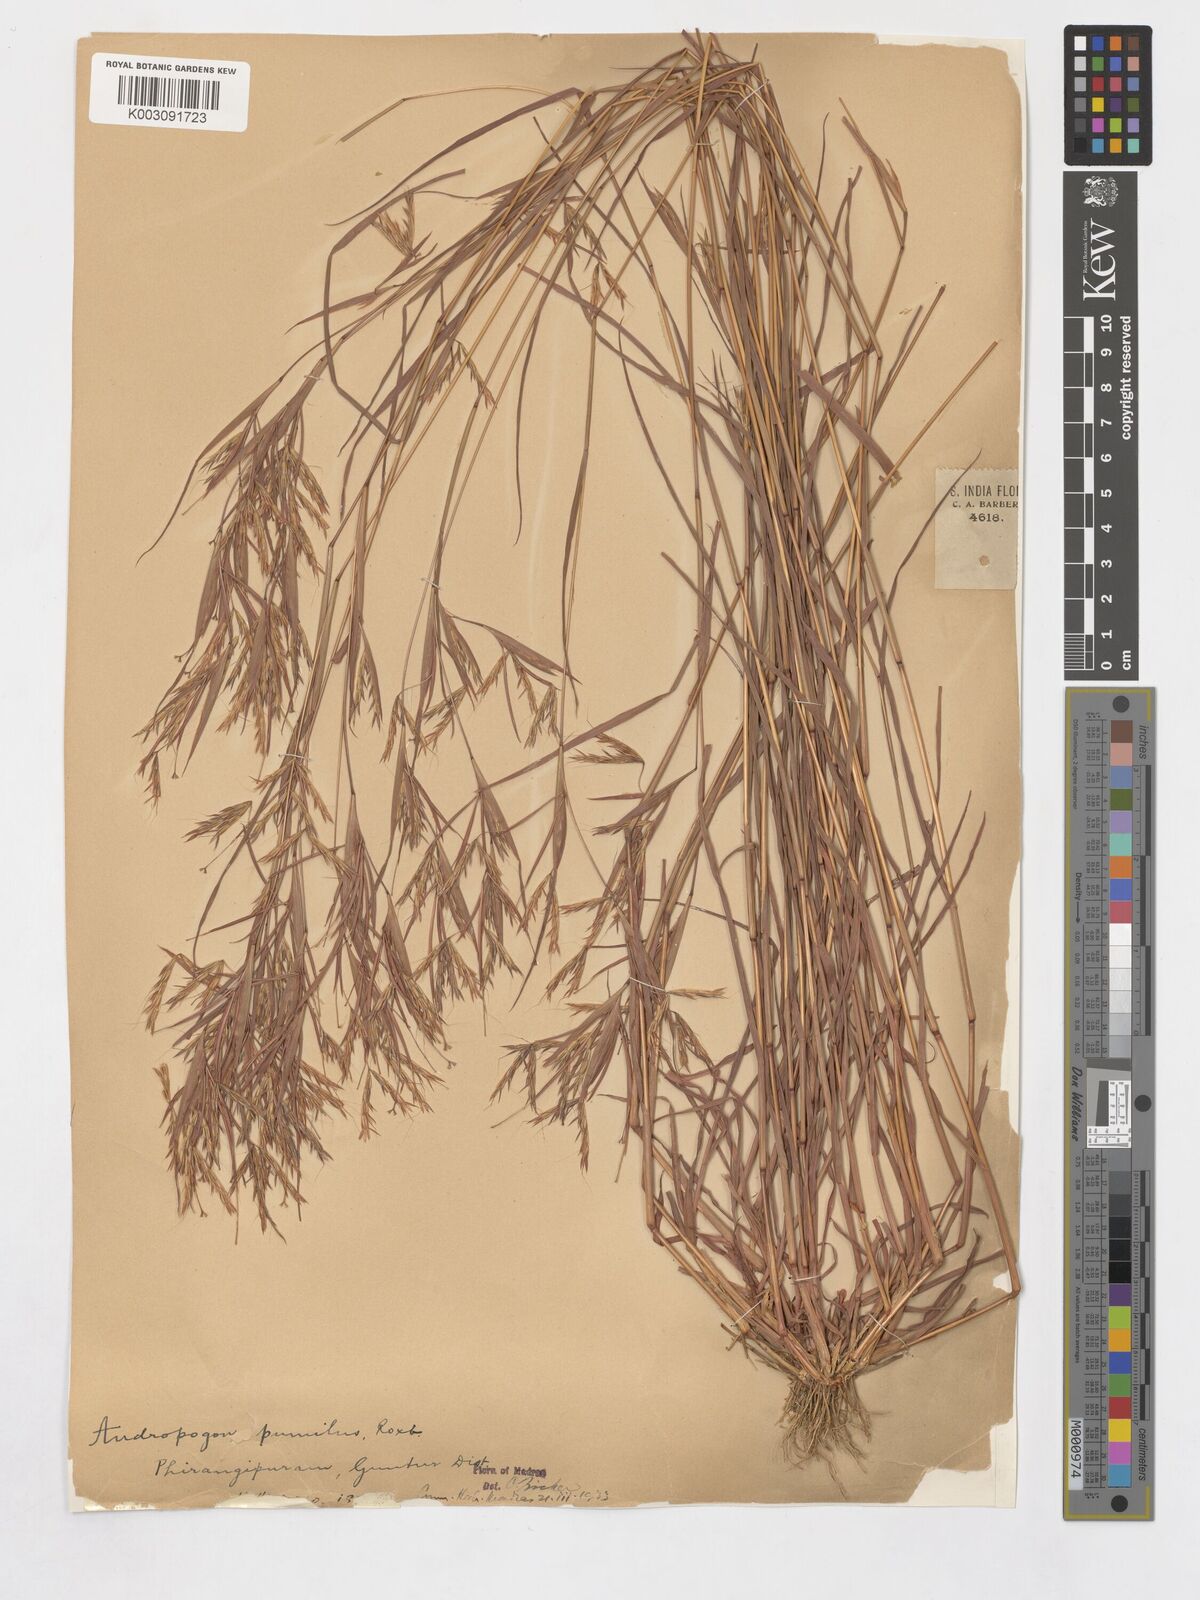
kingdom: Plantae
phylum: Tracheophyta
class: Liliopsida
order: Poales
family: Poaceae
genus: Andropogon
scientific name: Andropogon pumilus
